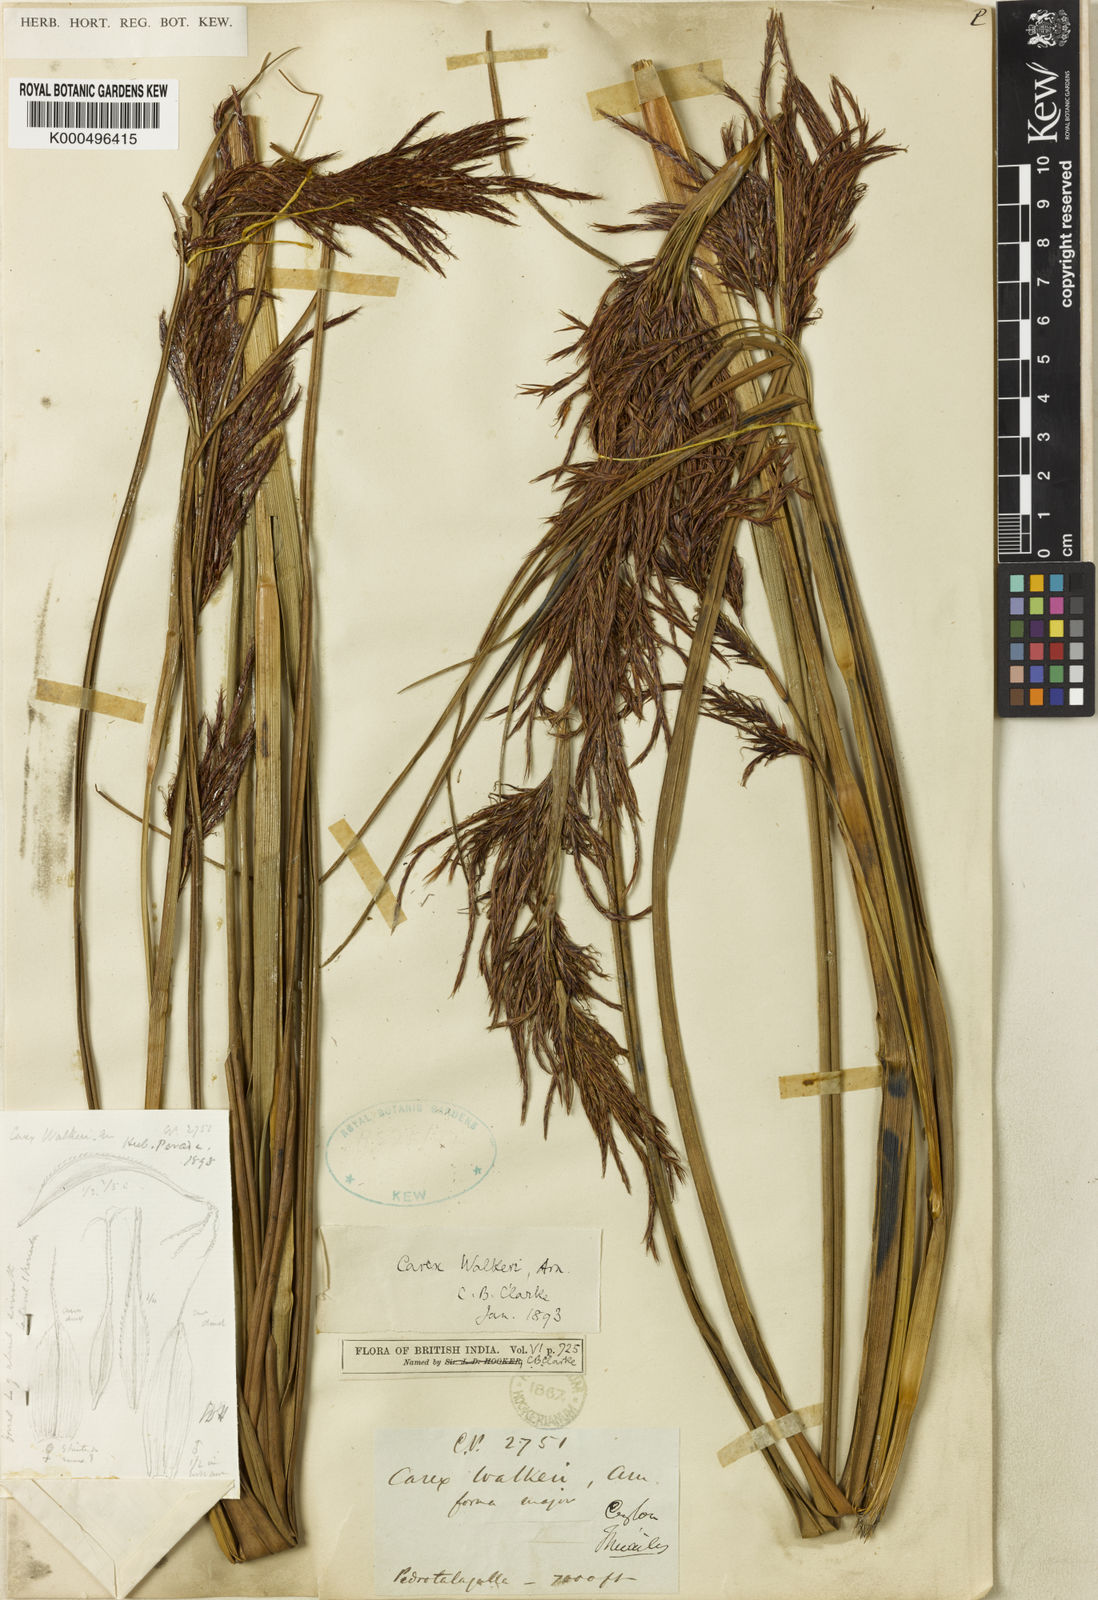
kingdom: Plantae
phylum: Tracheophyta
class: Liliopsida
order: Poales
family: Cyperaceae
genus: Carex
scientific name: Carex walkeri
